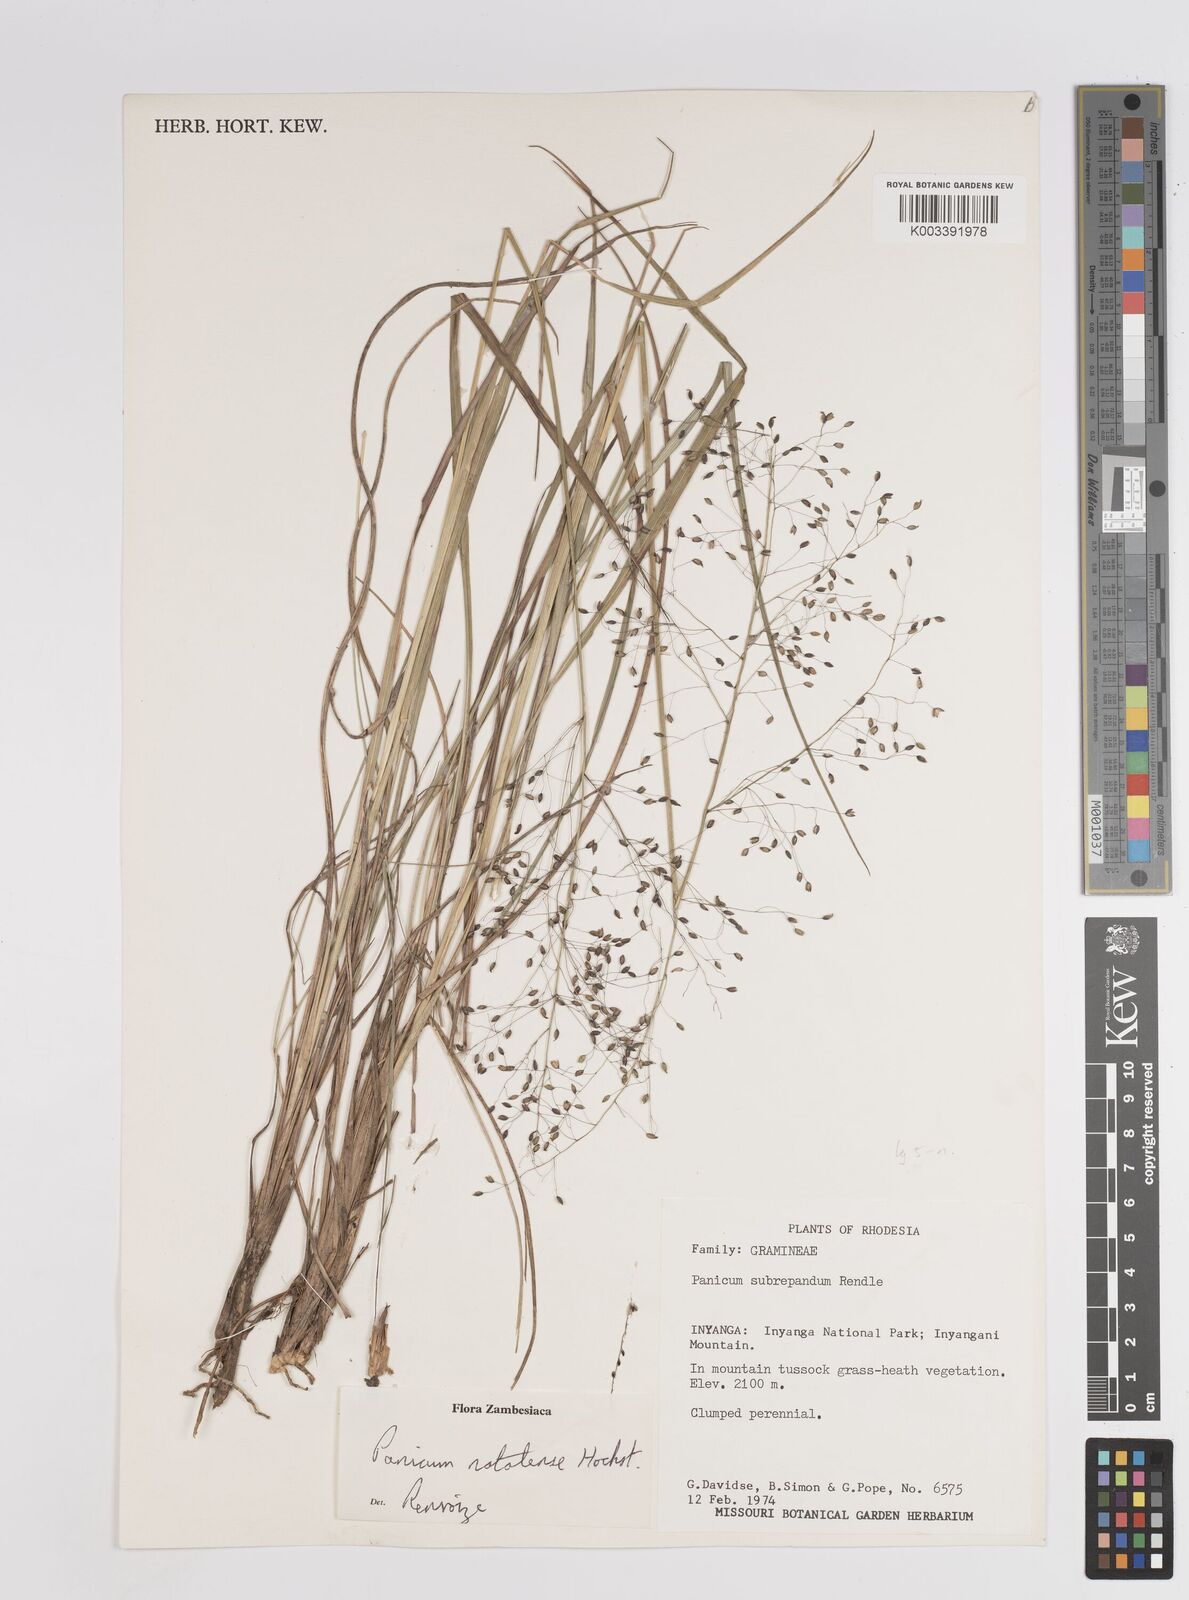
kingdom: Plantae
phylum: Tracheophyta
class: Liliopsida
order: Poales
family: Poaceae
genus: Trichanthecium
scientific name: Trichanthecium natalense
